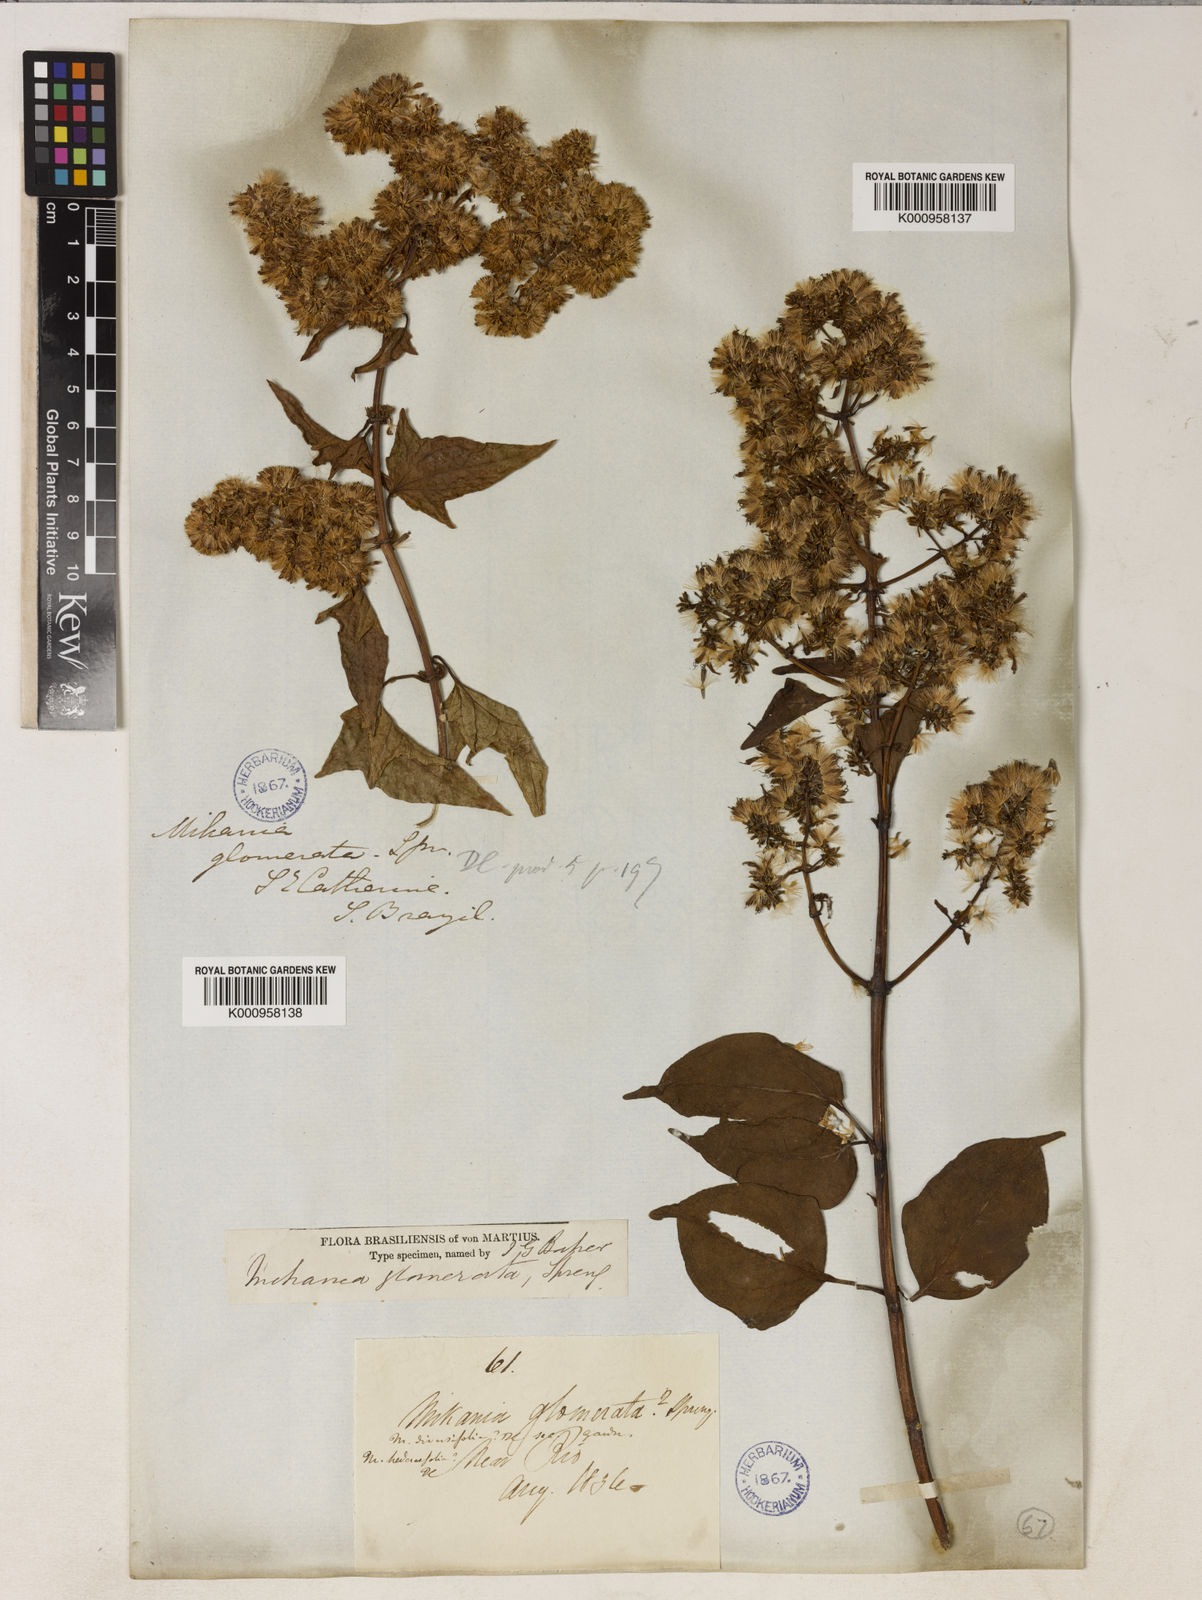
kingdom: Plantae
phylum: Tracheophyta
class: Magnoliopsida
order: Asterales
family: Asteraceae
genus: Mikania
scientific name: Mikania glomerata
